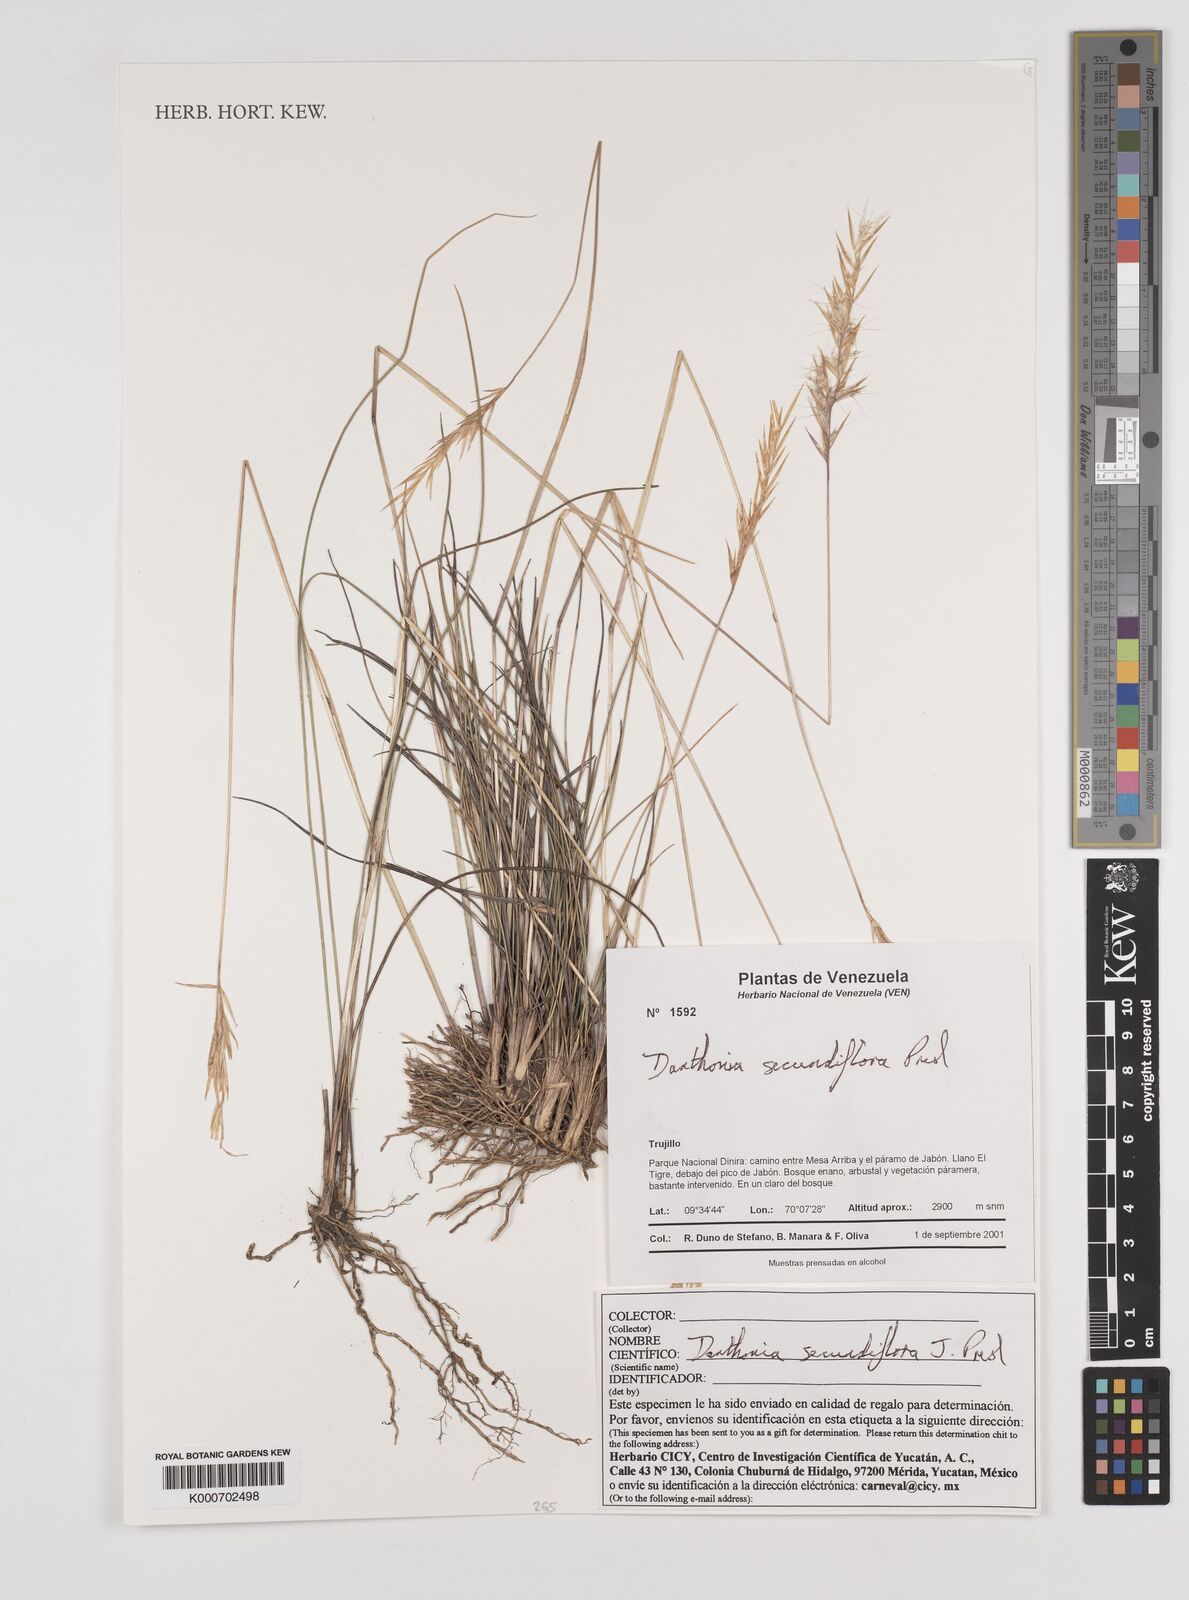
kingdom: Plantae
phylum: Tracheophyta
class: Liliopsida
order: Poales
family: Poaceae
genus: Danthonia
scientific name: Danthonia secundiflora
